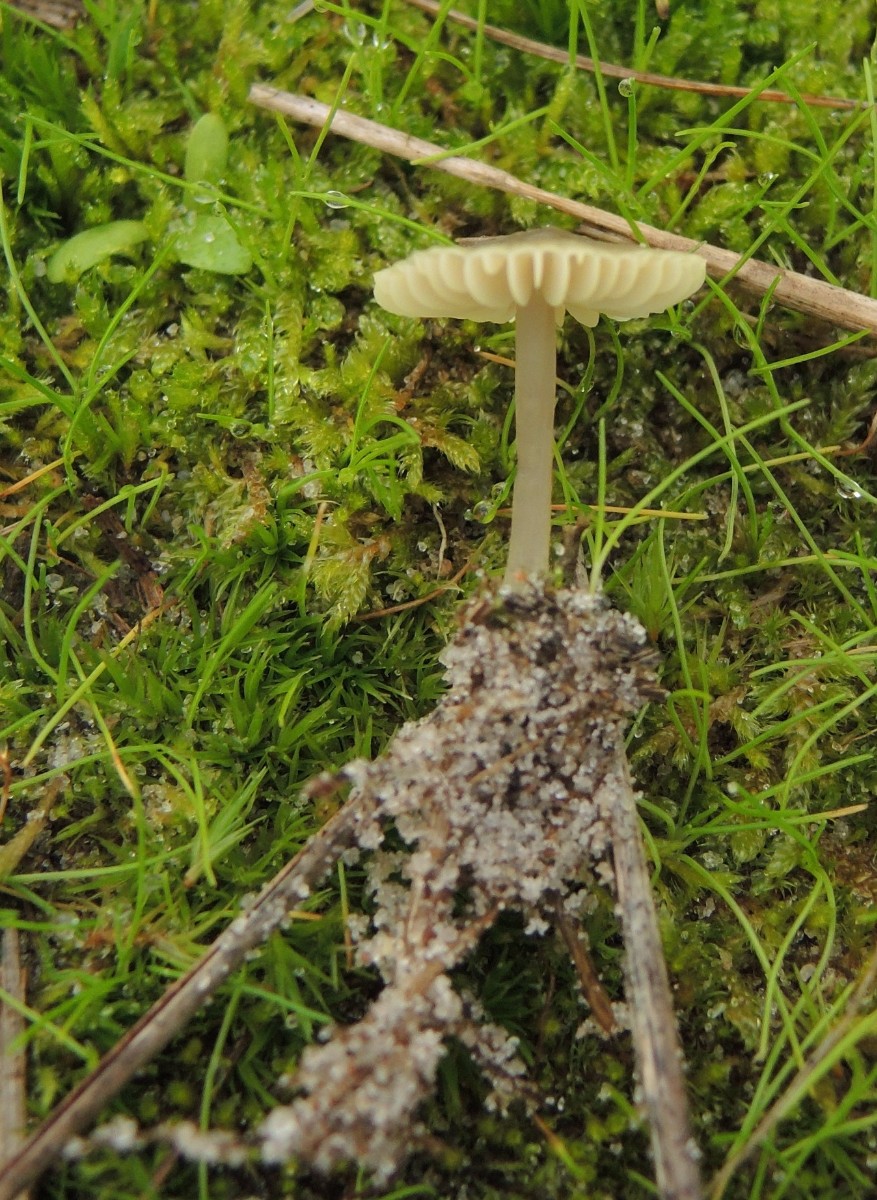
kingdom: Fungi
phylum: Basidiomycota
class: Agaricomycetes
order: Agaricales
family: Mycenaceae
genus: Mycena
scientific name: Mycena chlorantha
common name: klit-huesvamp
